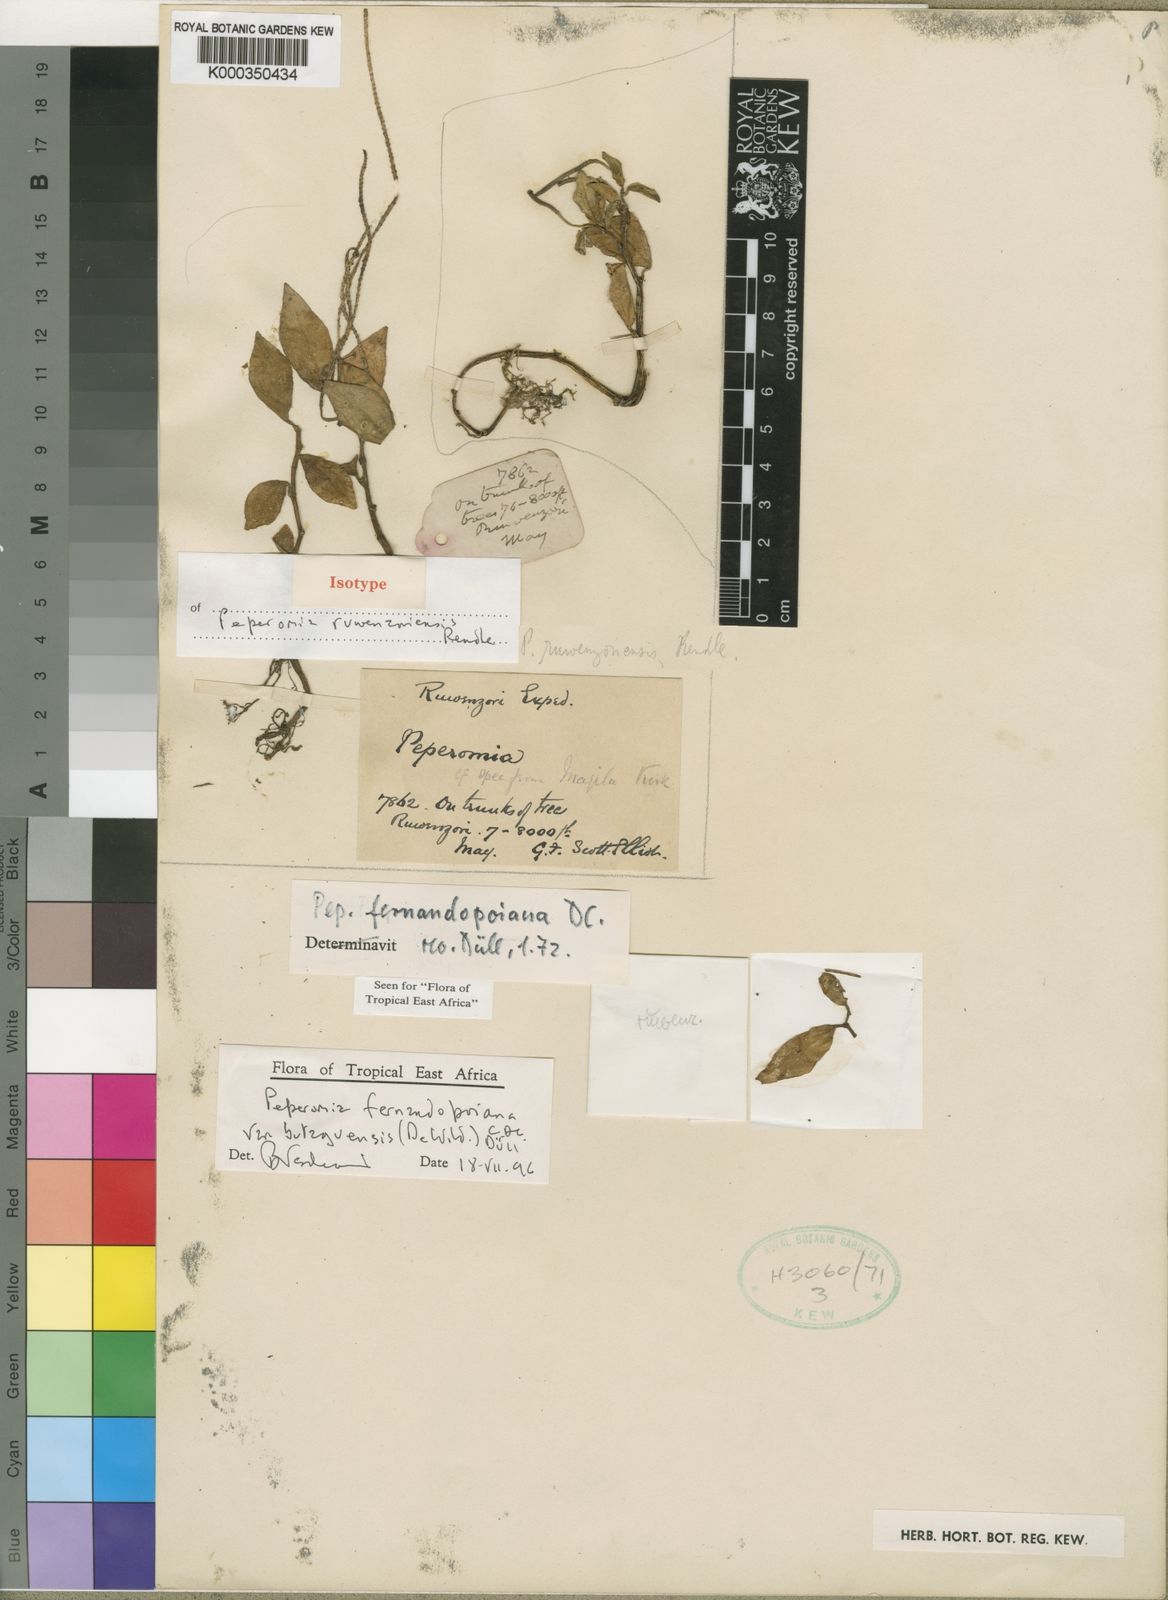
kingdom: Plantae
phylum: Tracheophyta
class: Magnoliopsida
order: Piperales
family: Piperaceae
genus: Peperomia
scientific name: Peperomia fernandopoiana
